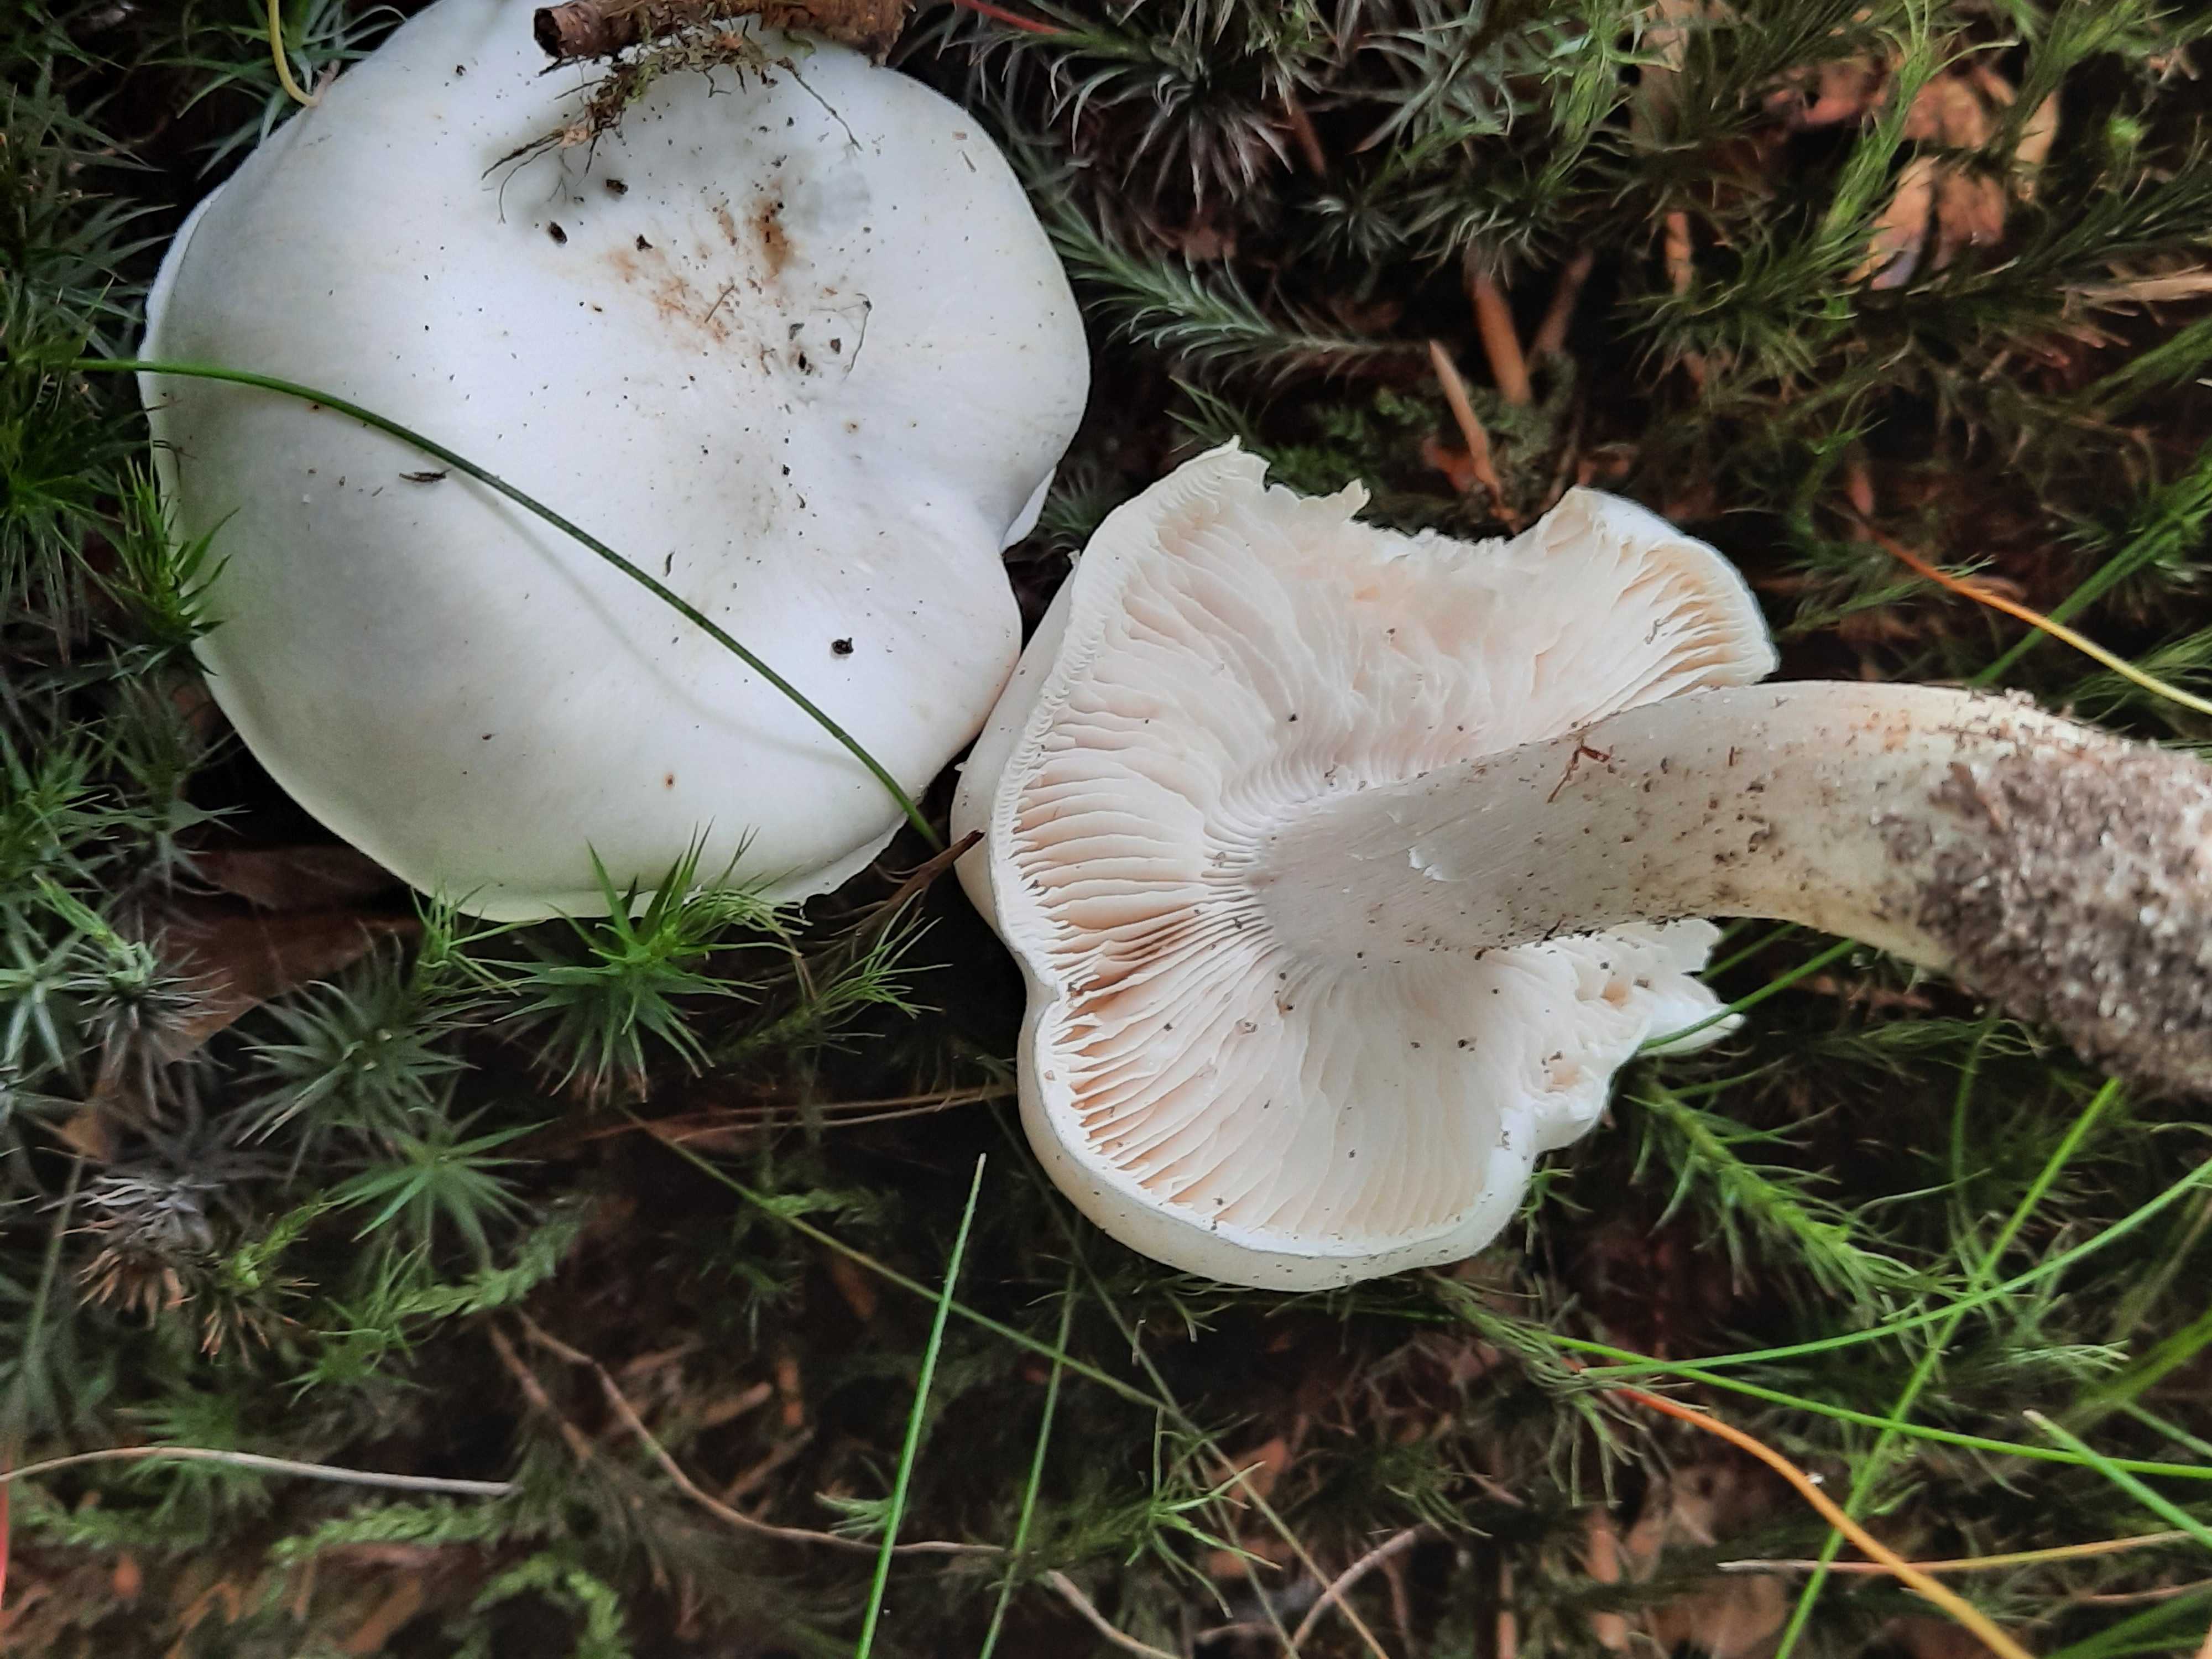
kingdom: Fungi
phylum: Basidiomycota
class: Agaricomycetes
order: Agaricales
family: Tricholomataceae
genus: Tricholoma
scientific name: Tricholoma columbetta
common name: silke-ridderhat
